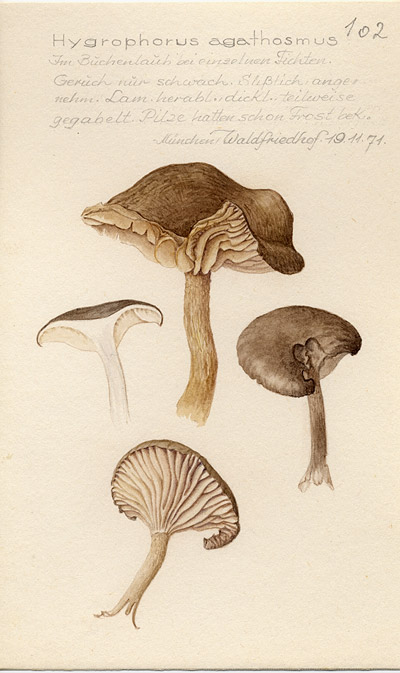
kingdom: Fungi
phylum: Basidiomycota
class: Agaricomycetes
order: Agaricales
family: Hygrophoraceae
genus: Hygrophorus
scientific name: Hygrophorus agathosmus
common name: Almond woodwax
